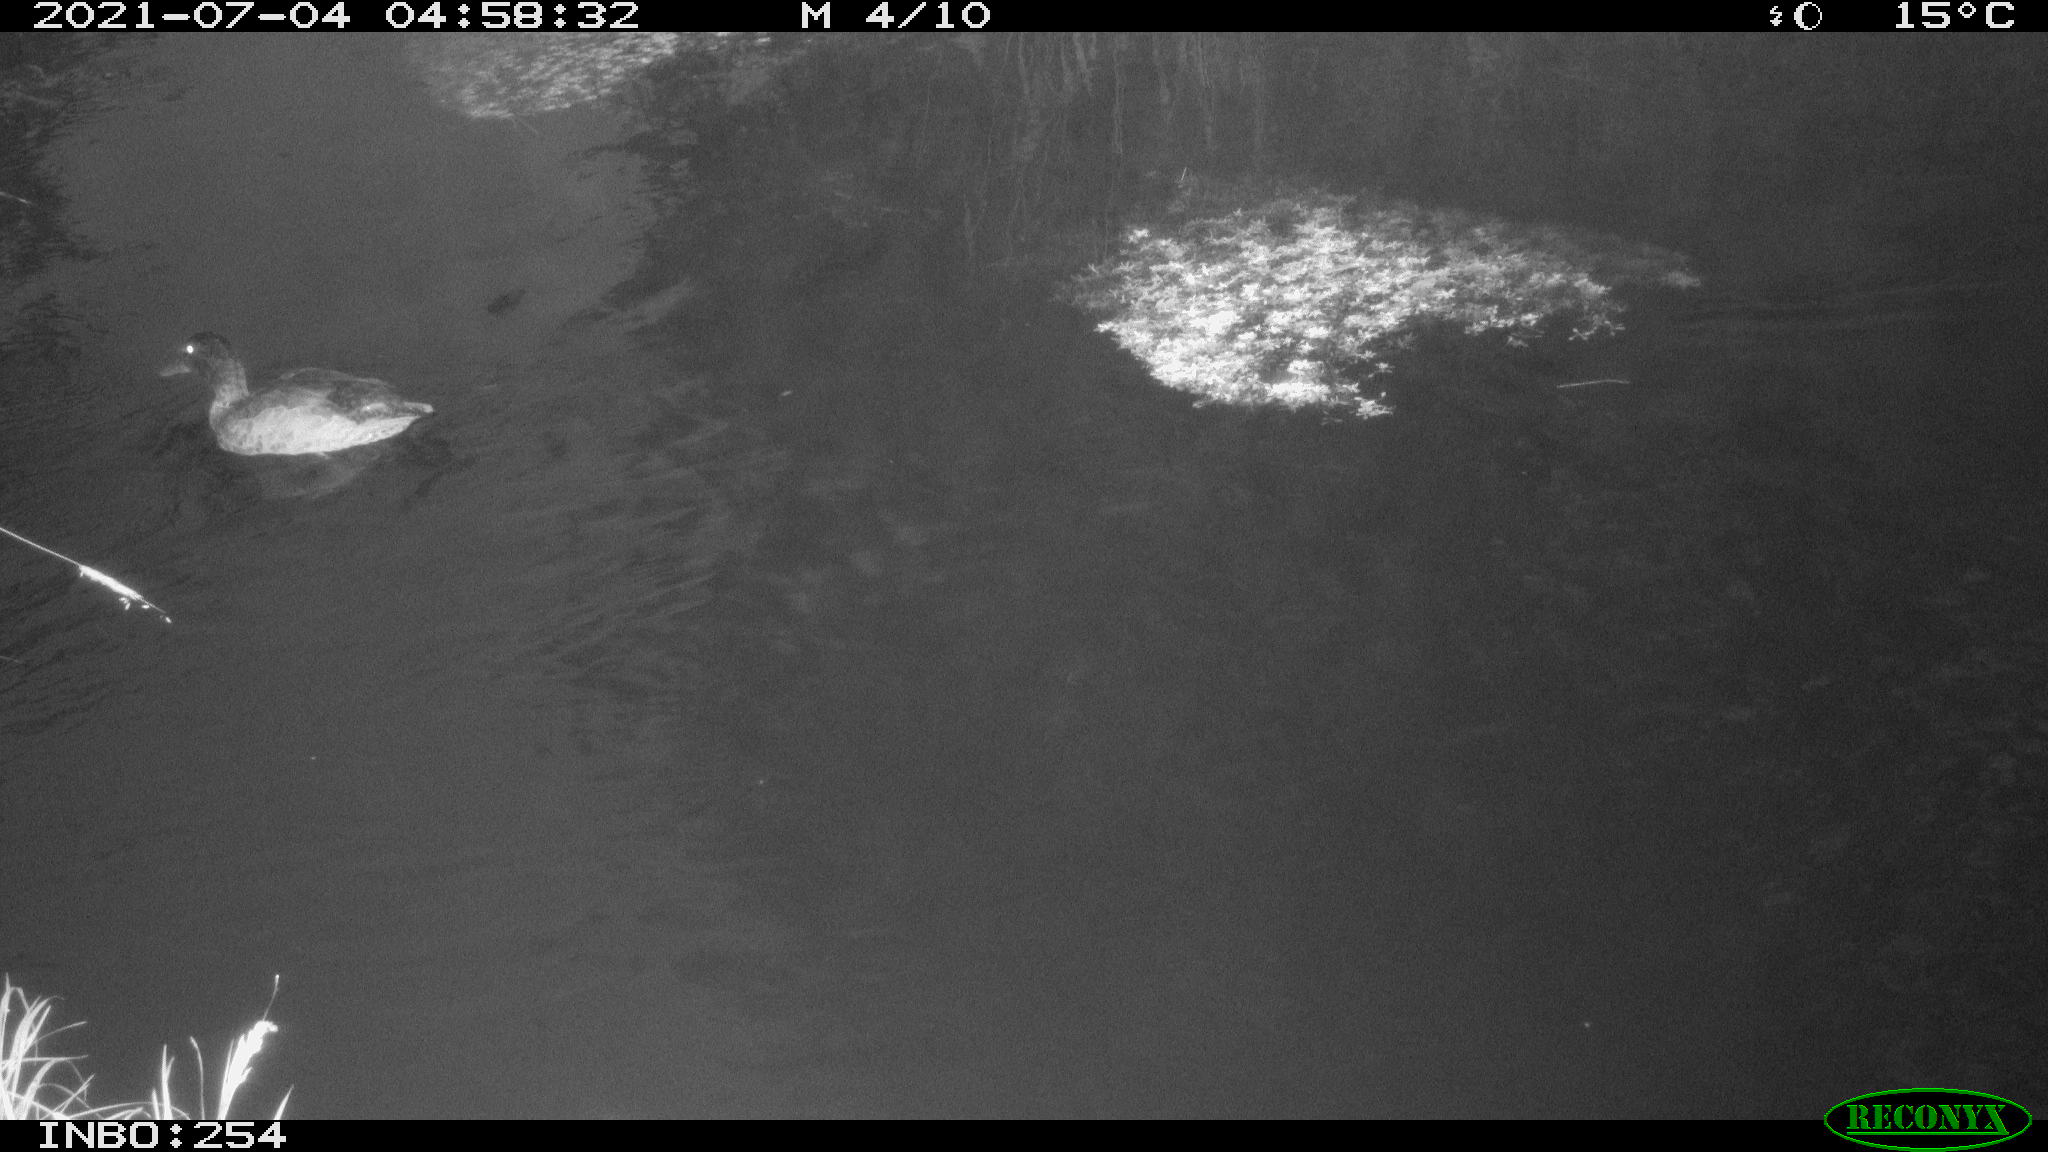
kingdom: Animalia
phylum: Chordata
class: Aves
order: Anseriformes
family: Anatidae
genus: Mareca
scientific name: Mareca strepera
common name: Gadwall
